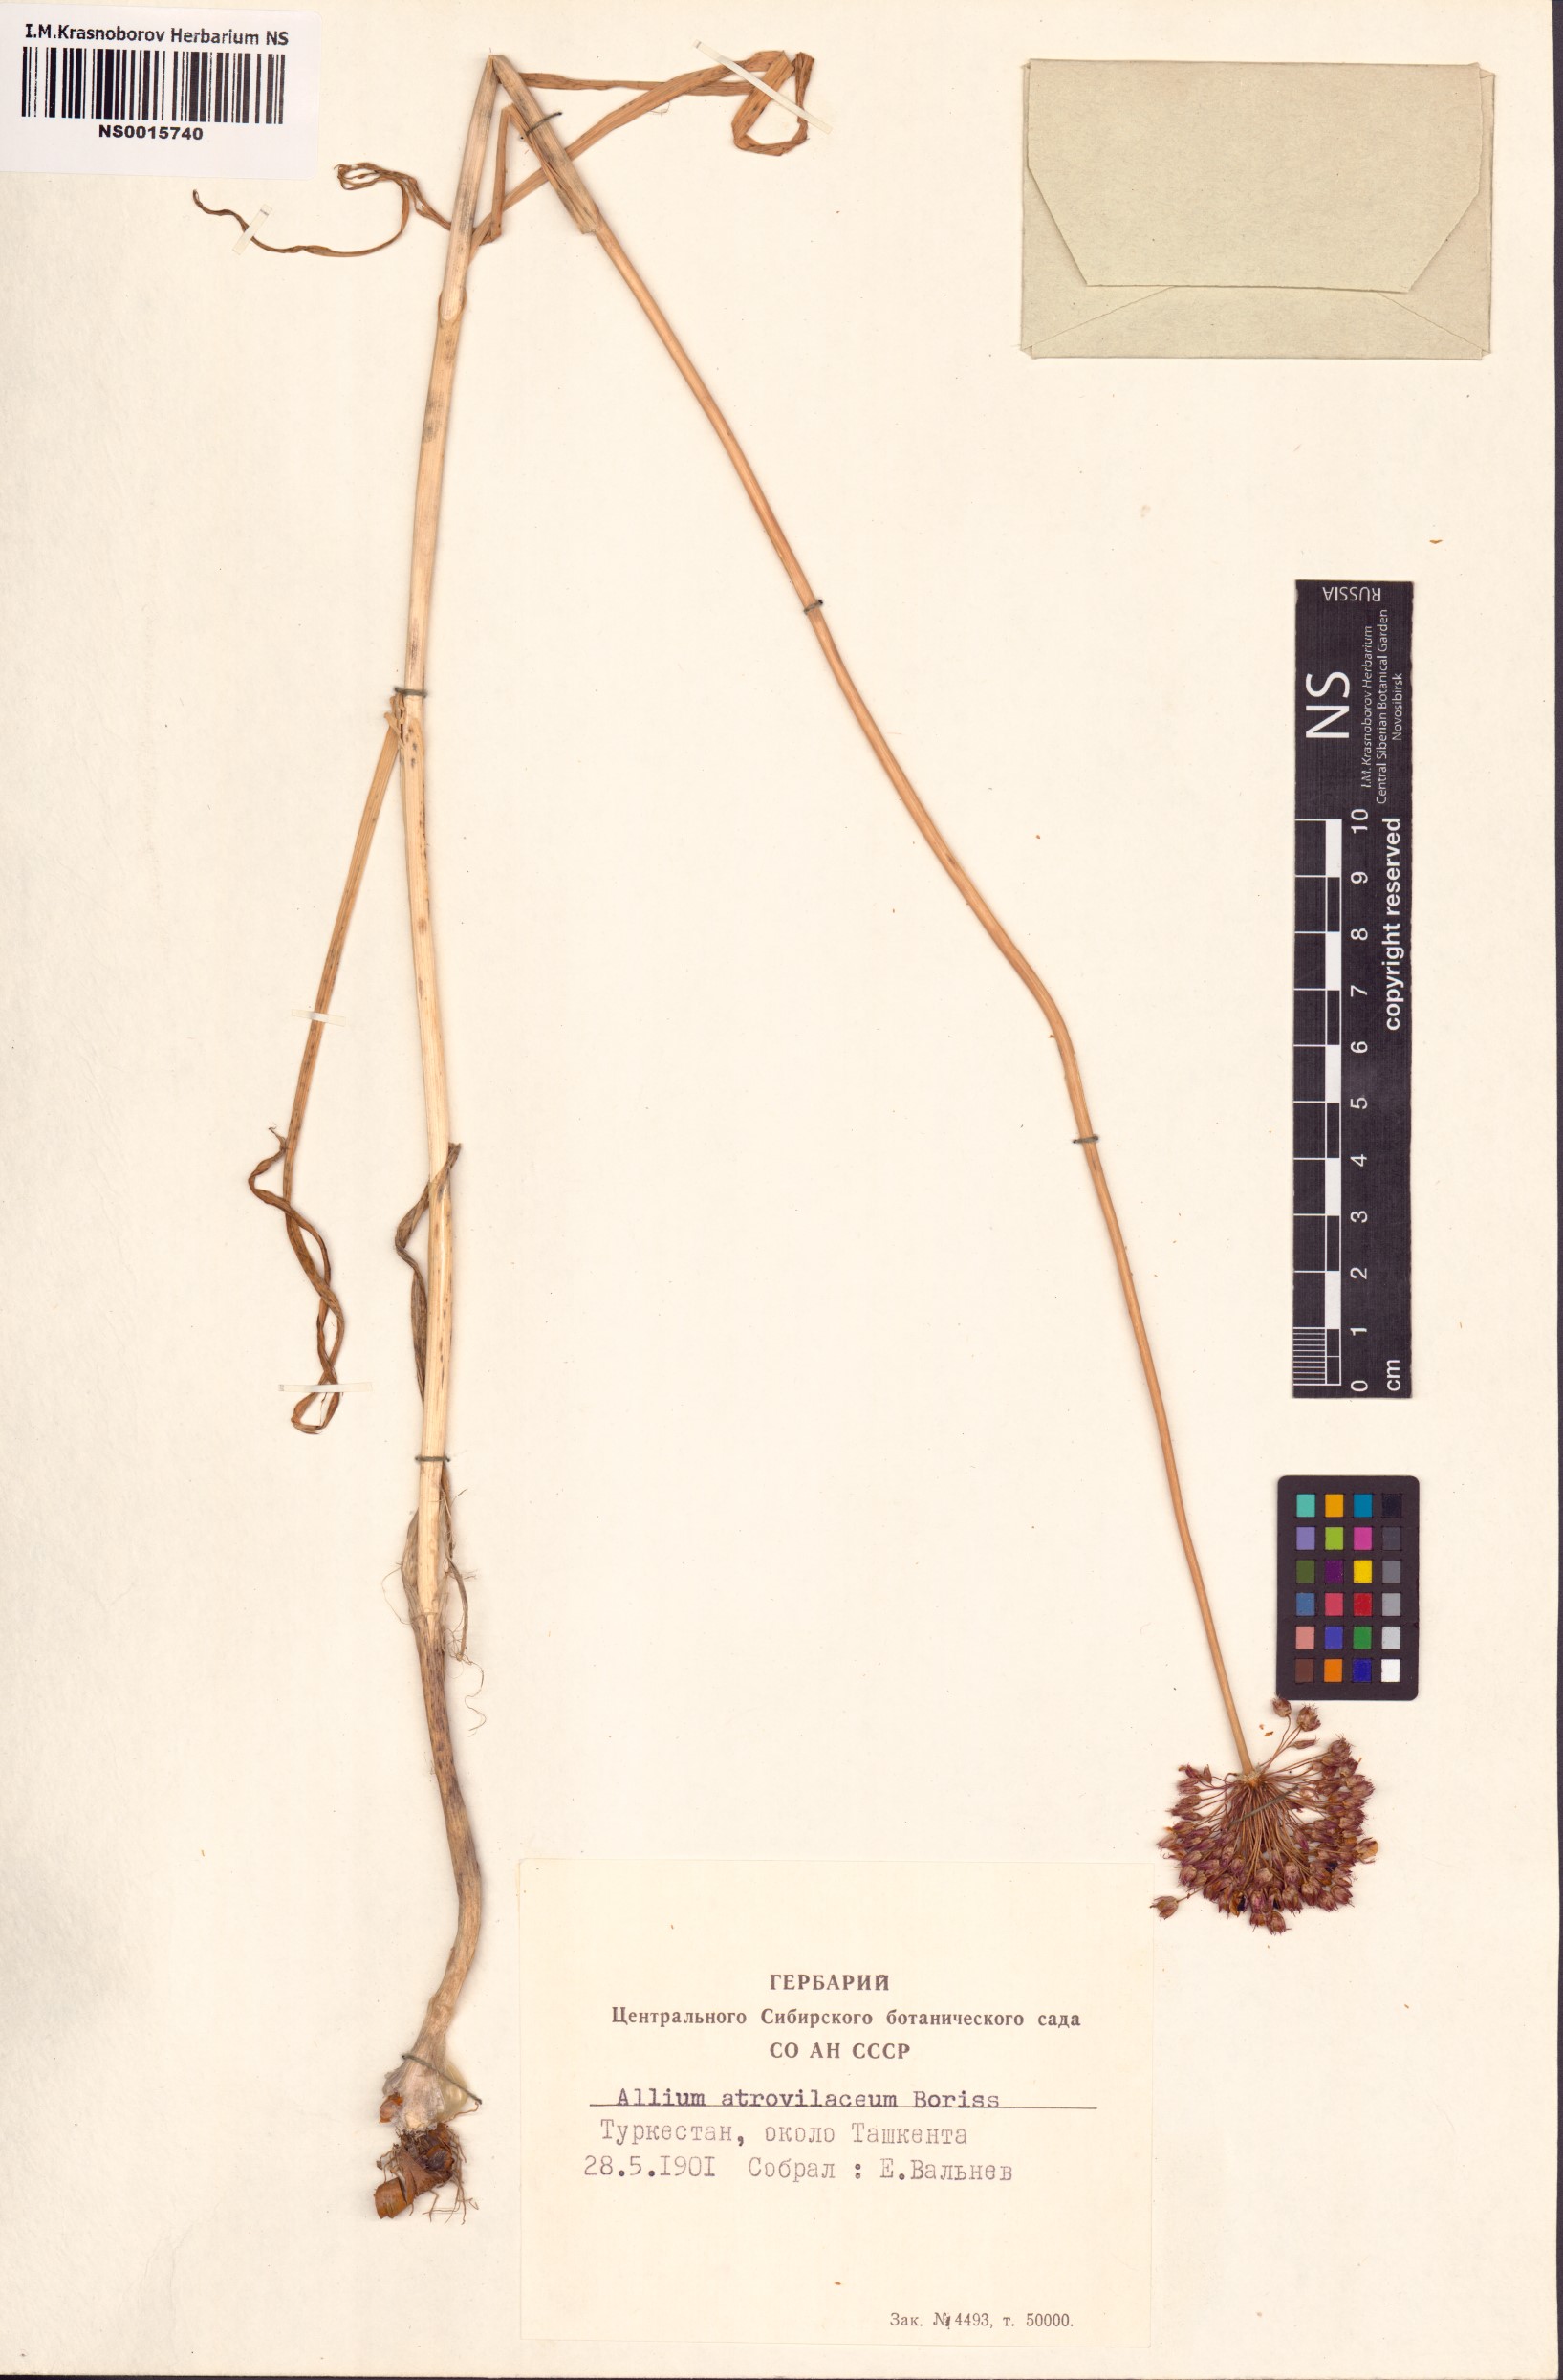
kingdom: Plantae
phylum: Tracheophyta
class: Liliopsida
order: Asparagales
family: Amaryllidaceae
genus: Allium
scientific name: Allium atroviolaceum
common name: Broadleaf wild leek
